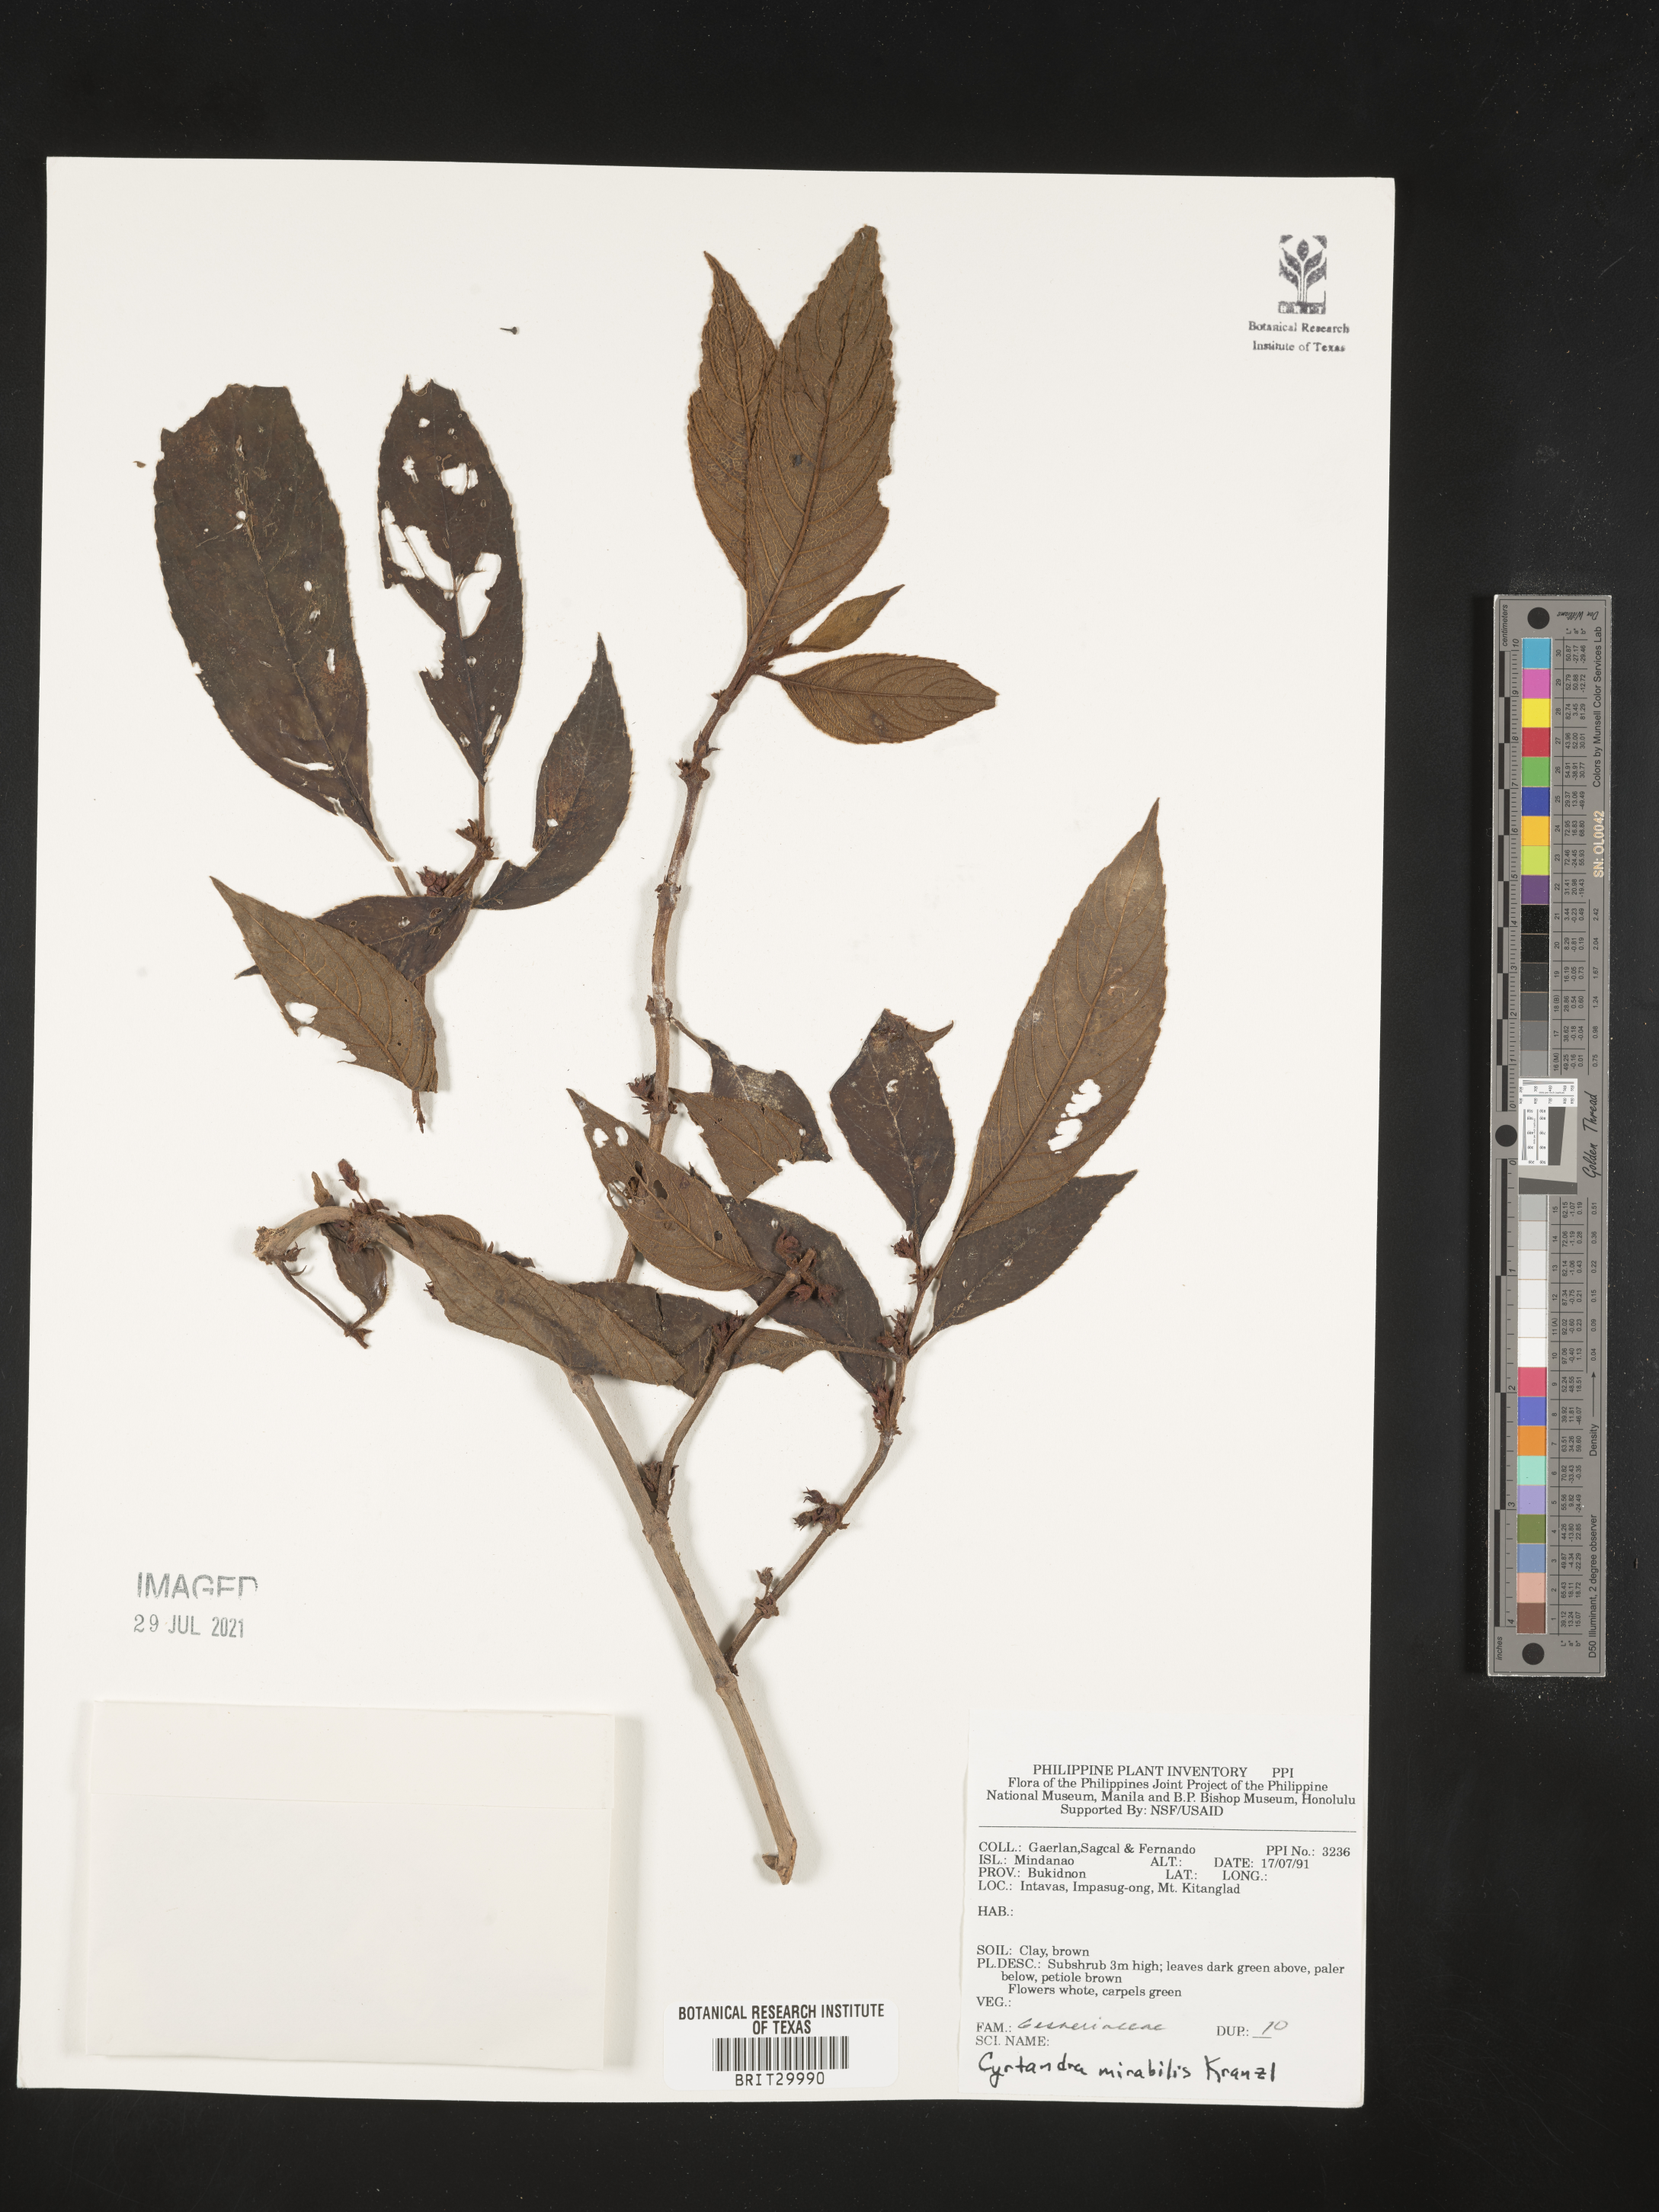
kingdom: Plantae
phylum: Tracheophyta
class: Magnoliopsida
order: Lamiales
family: Gesneriaceae
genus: Cyrtandra
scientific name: Cyrtandra mirabilis
